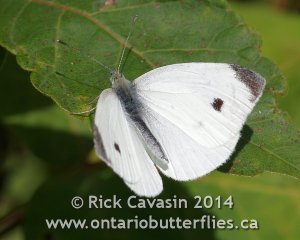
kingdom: Animalia
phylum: Arthropoda
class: Insecta
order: Lepidoptera
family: Pieridae
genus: Pieris
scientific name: Pieris rapae
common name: Cabbage White
